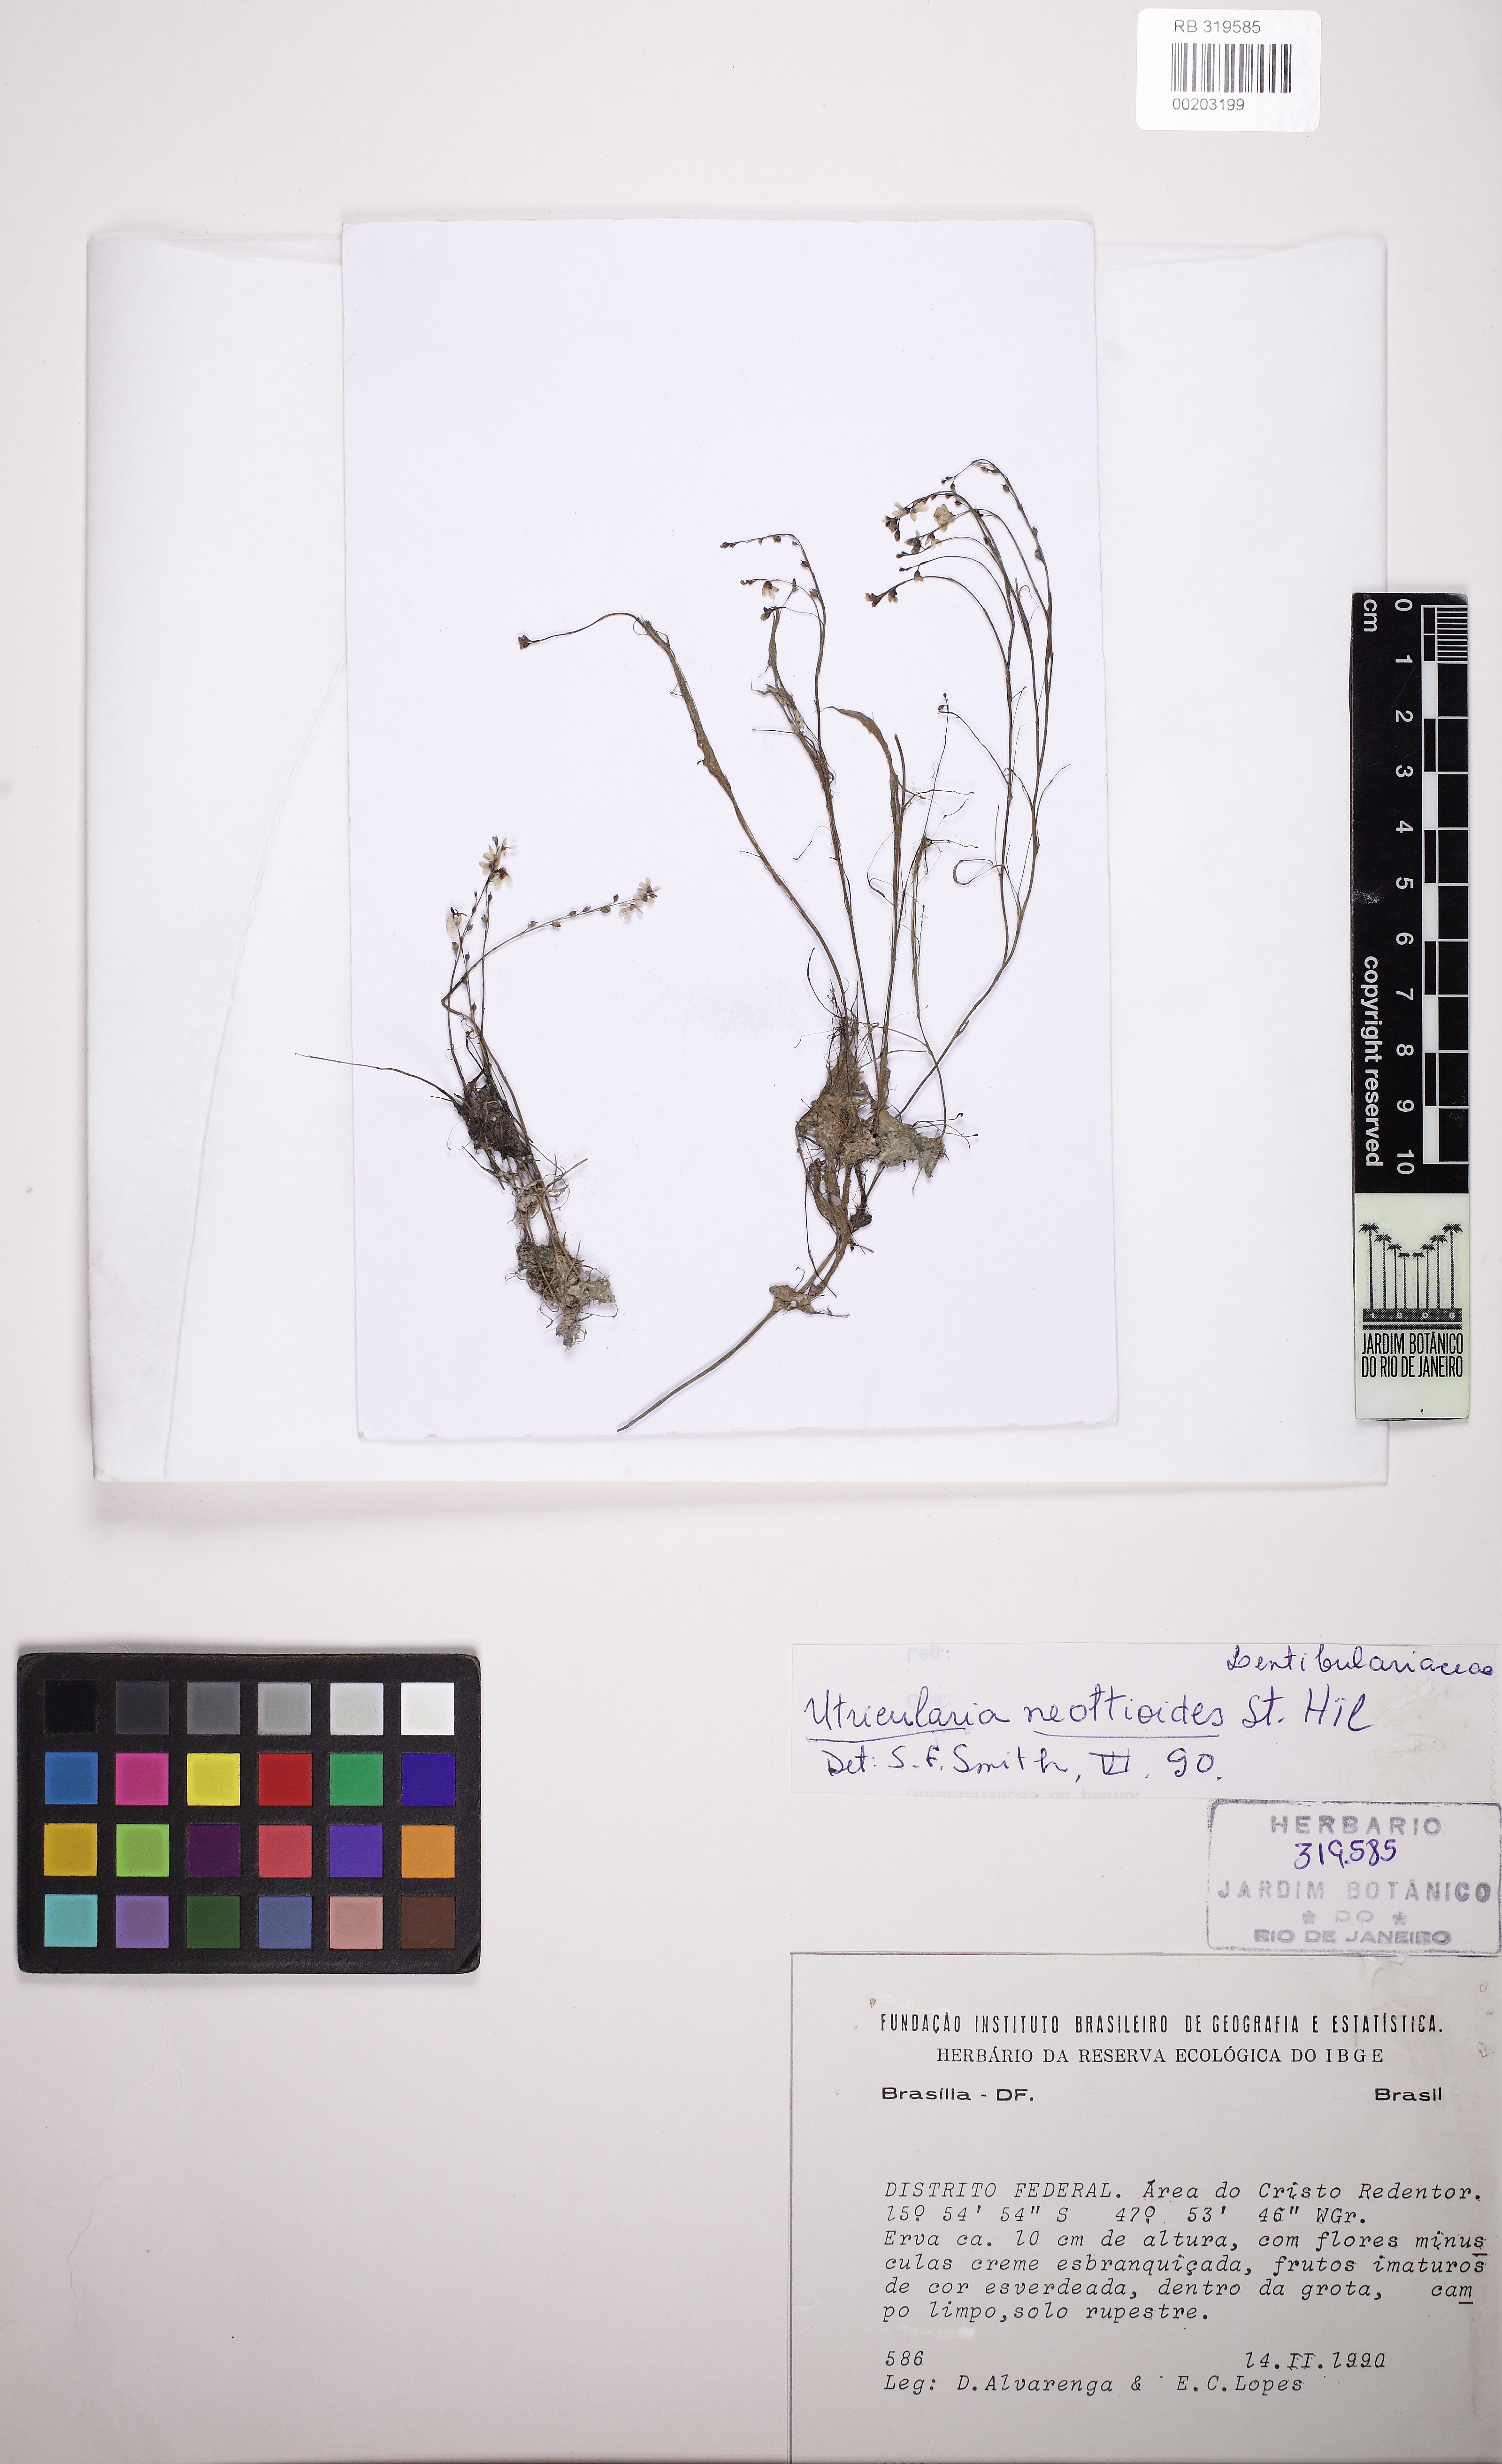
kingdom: Plantae
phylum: Tracheophyta
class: Magnoliopsida
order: Lamiales
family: Lentibulariaceae
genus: Utricularia
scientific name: Utricularia neottioides
